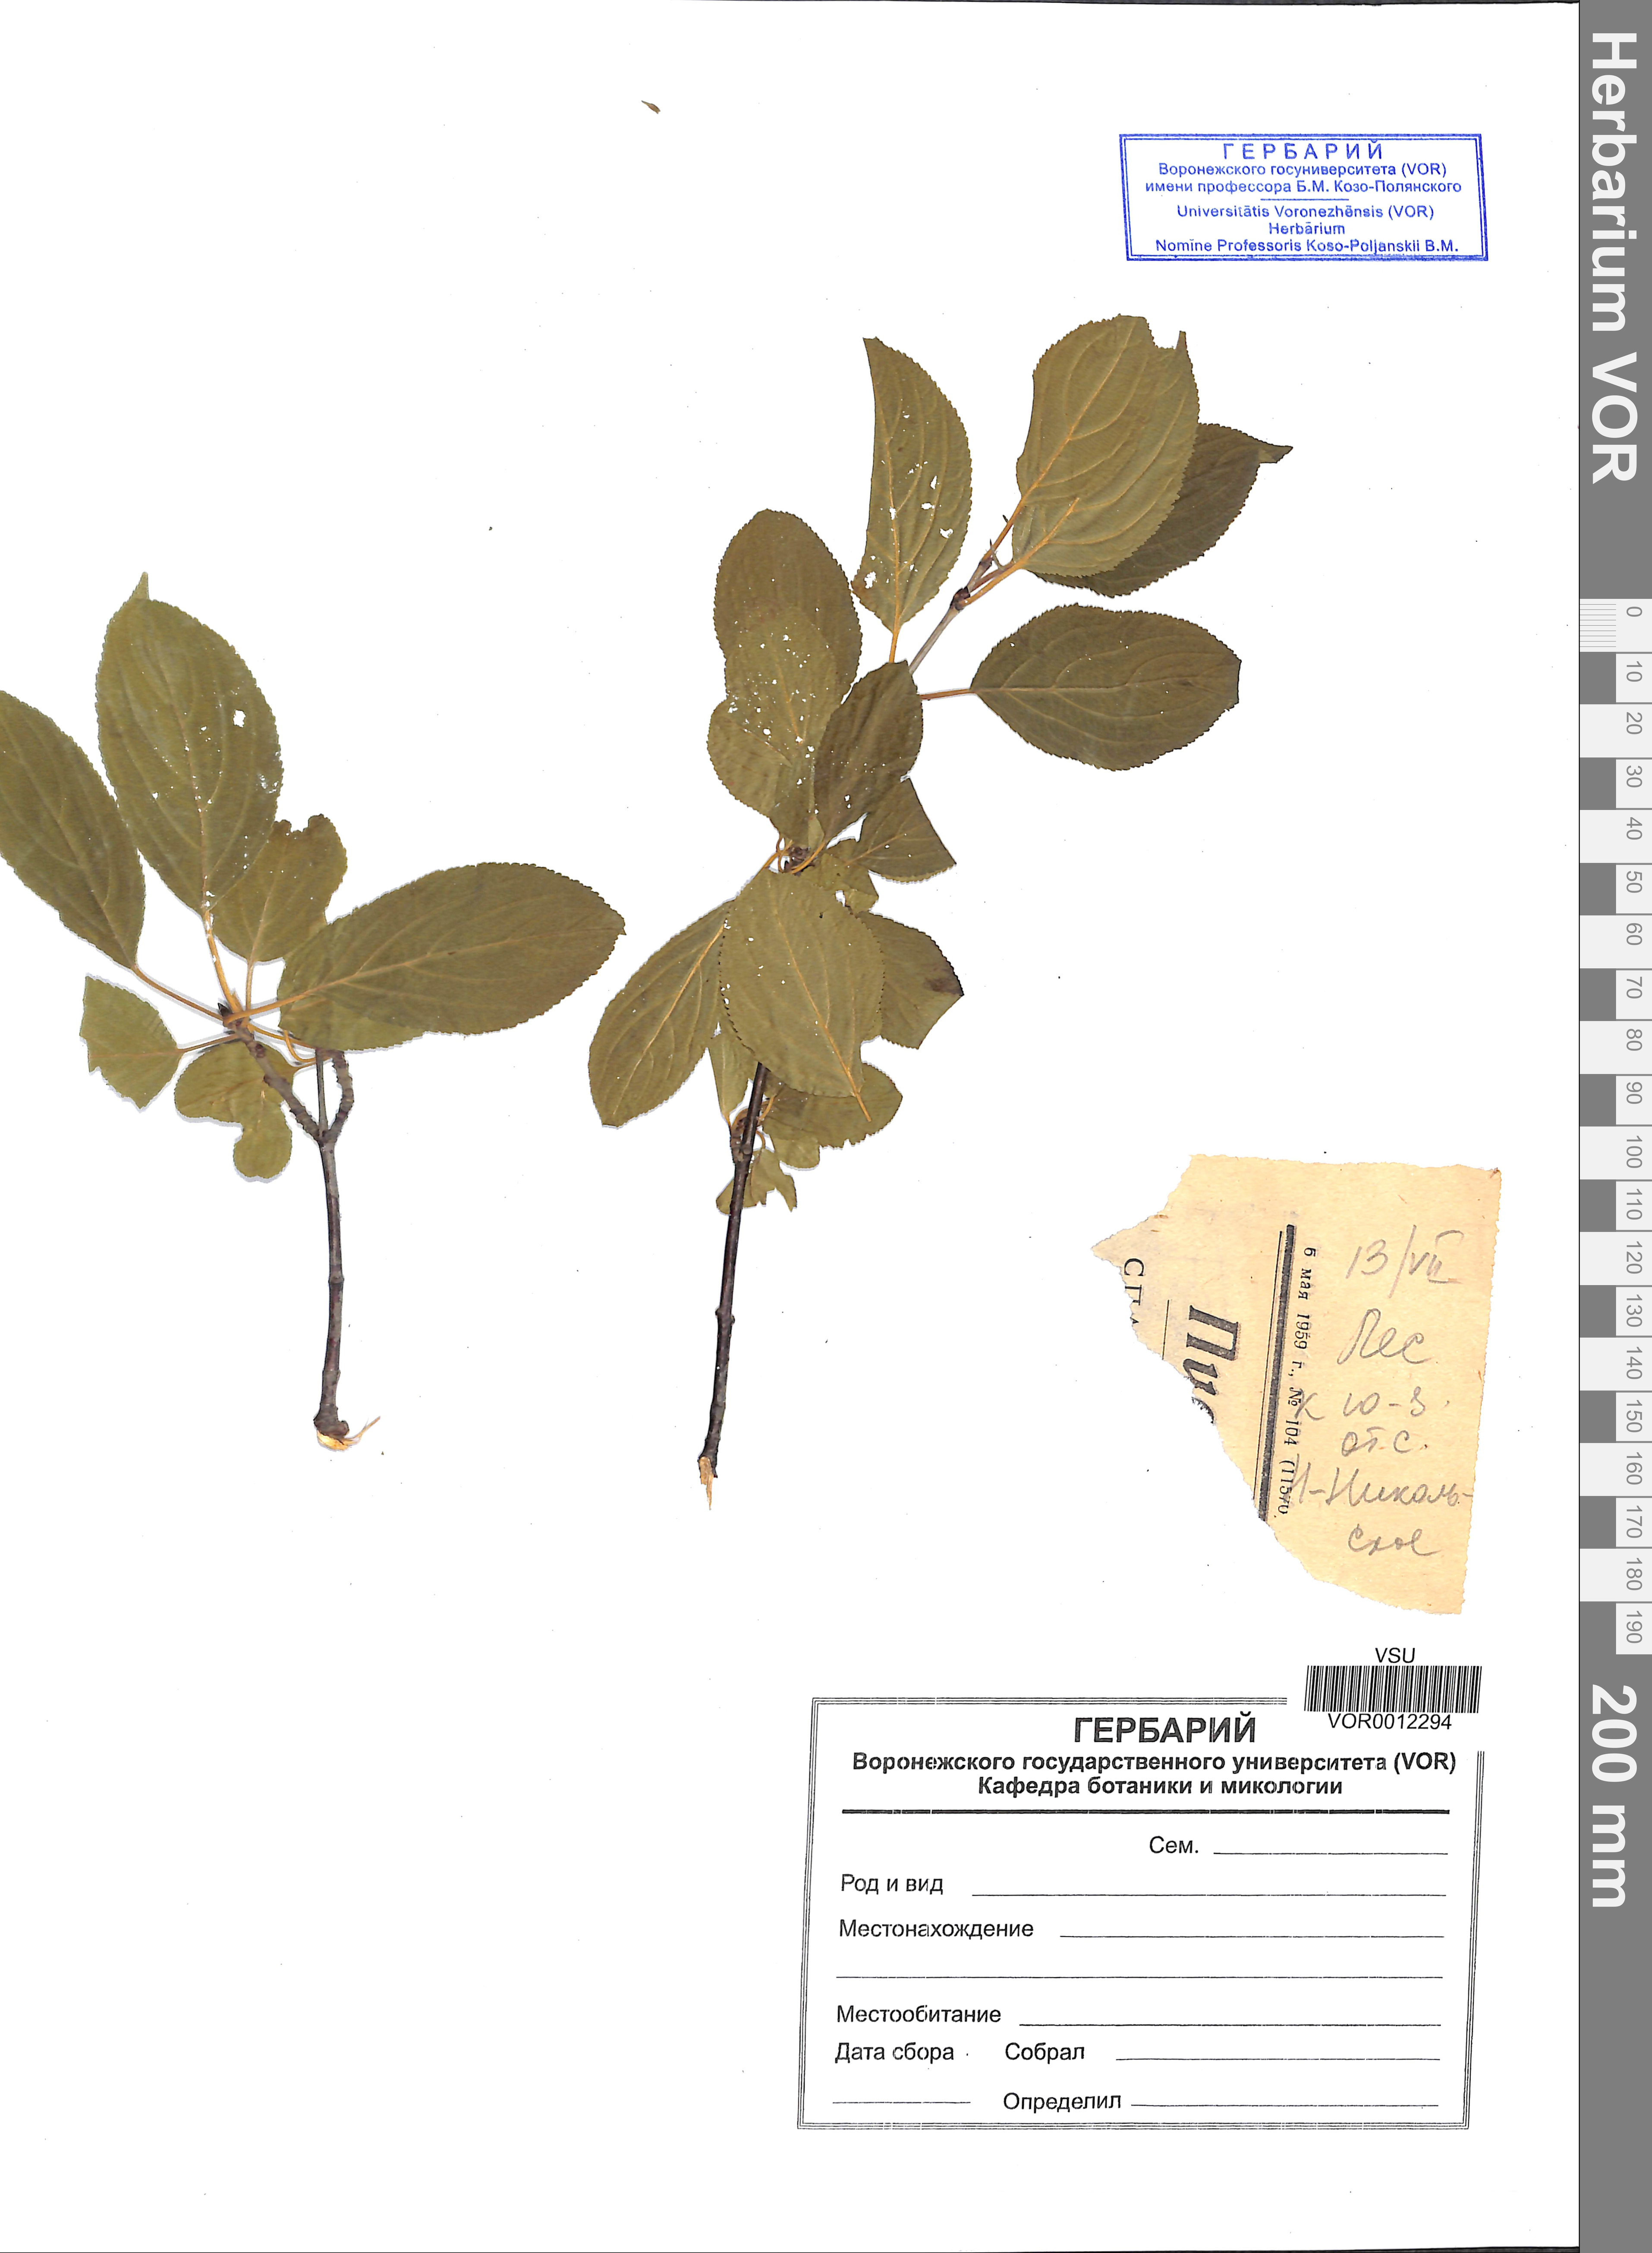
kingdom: Plantae
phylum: Tracheophyta
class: Magnoliopsida
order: Rosales
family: Rhamnaceae
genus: Rhamnus
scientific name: Rhamnus cathartica
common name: Common buckthorn
